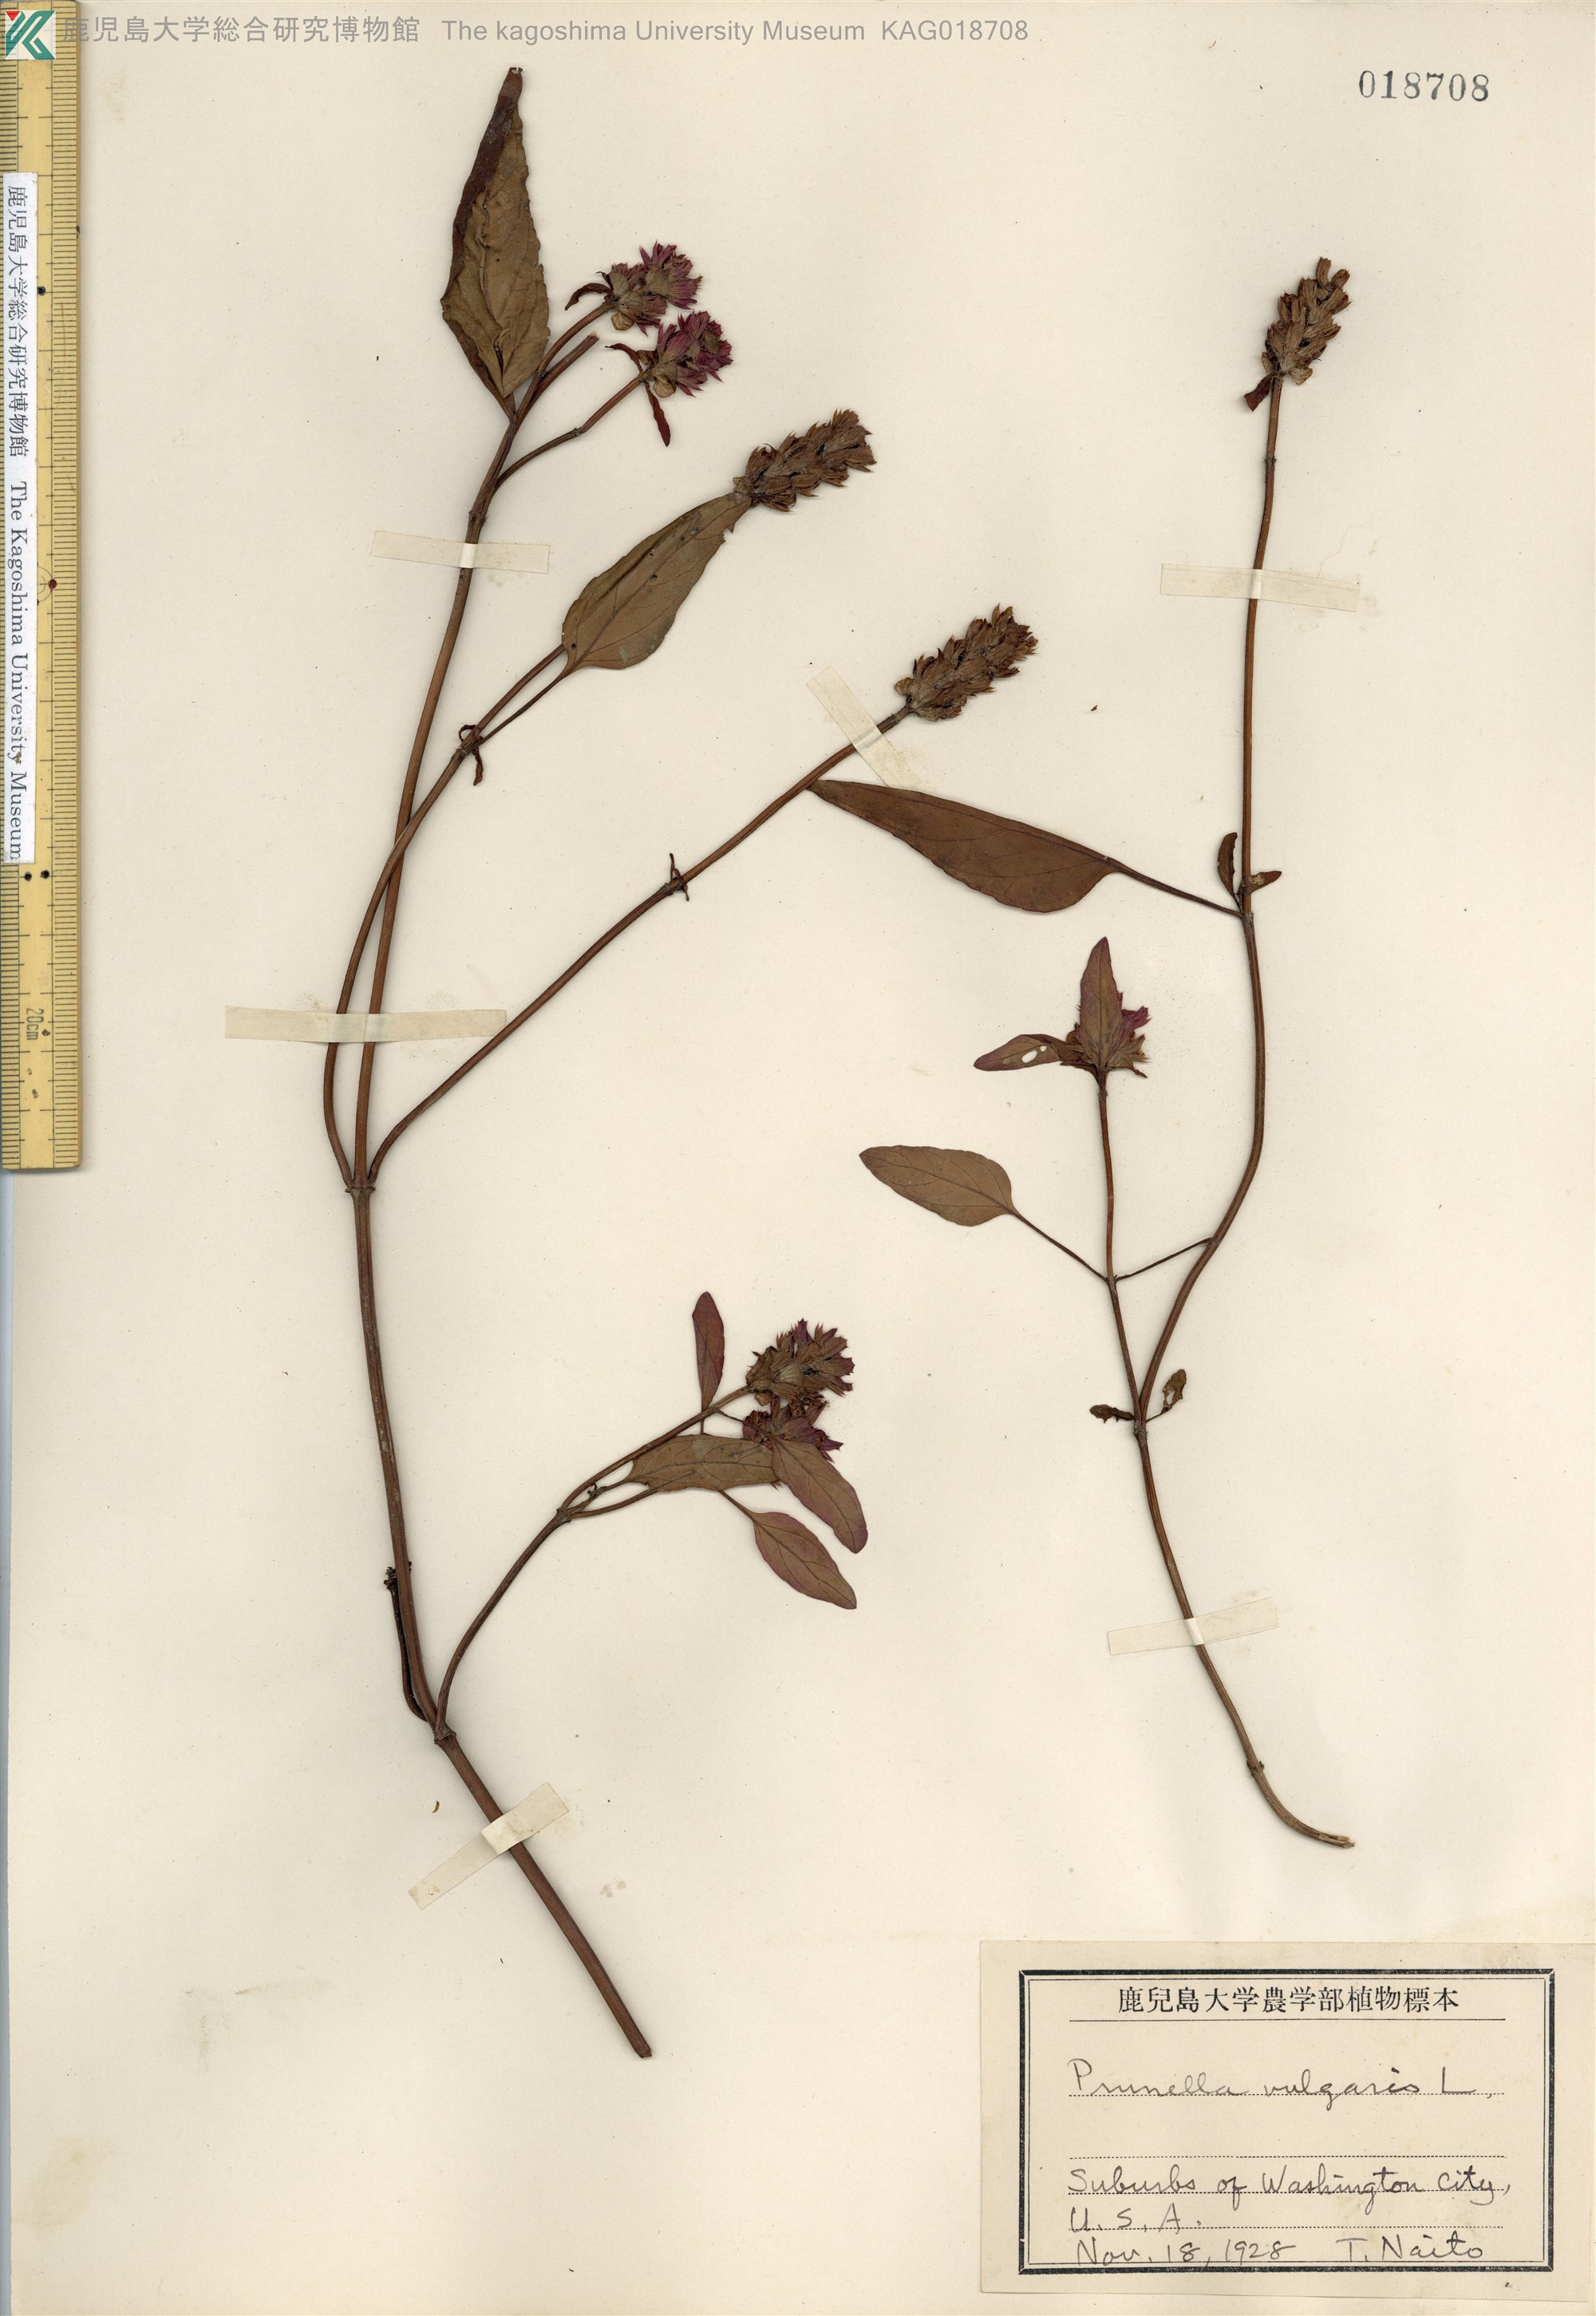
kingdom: Plantae
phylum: Tracheophyta
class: Magnoliopsida
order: Lamiales
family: Lamiaceae
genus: Prunella
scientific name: Prunella vulgaris
